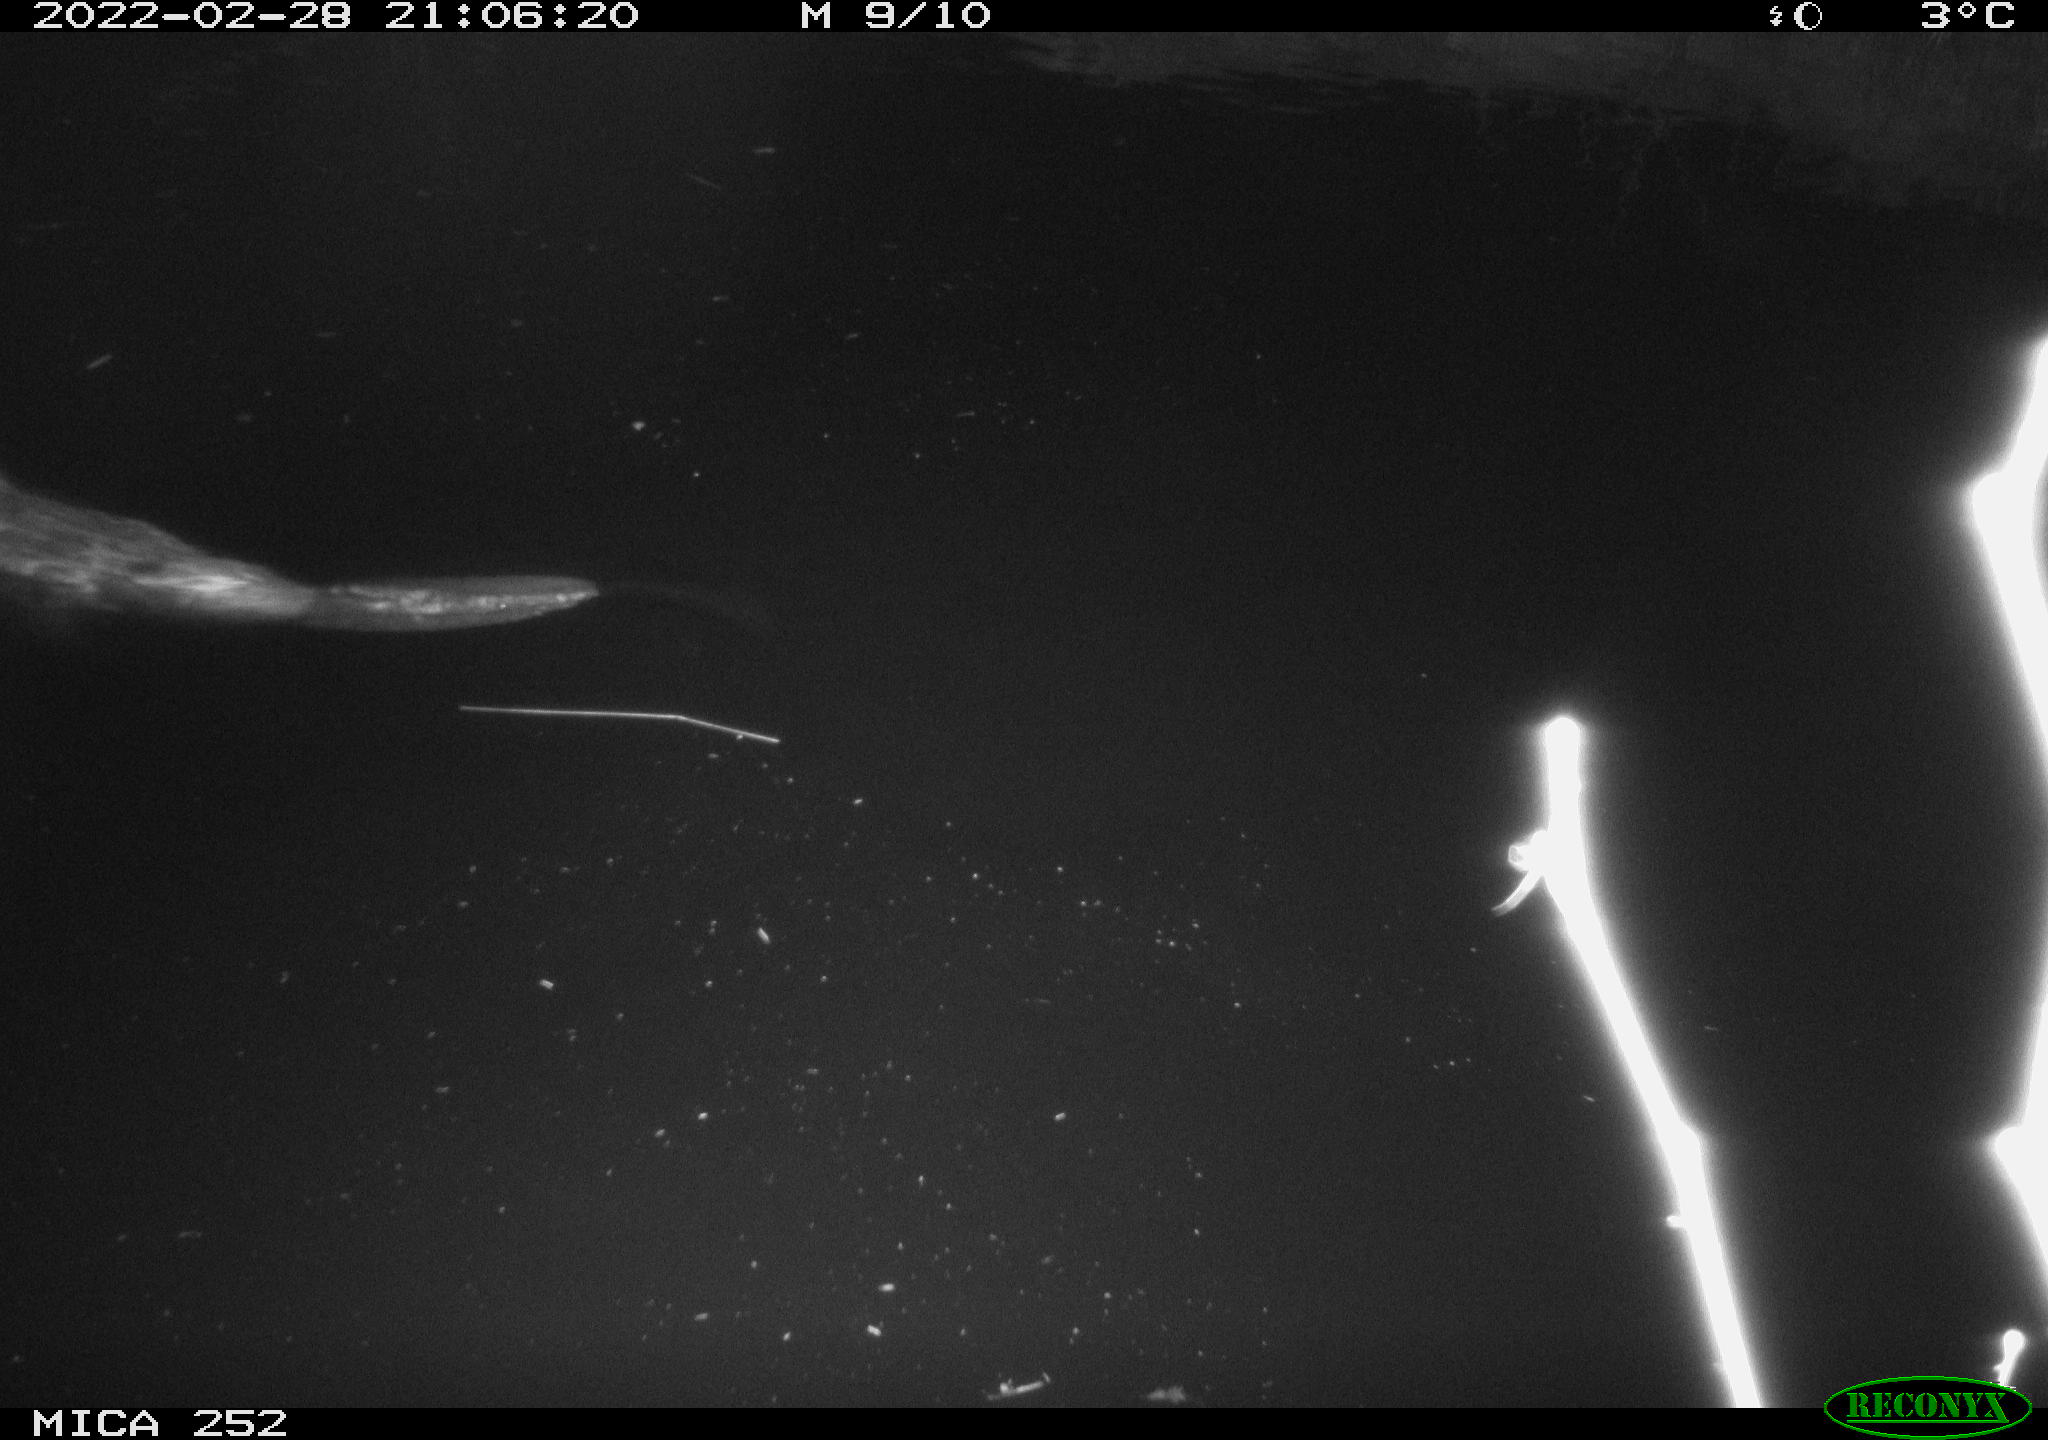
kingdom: Animalia
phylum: Chordata
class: Mammalia
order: Rodentia
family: Castoridae
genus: Castor
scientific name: Castor fiber
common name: Eurasian beaver
